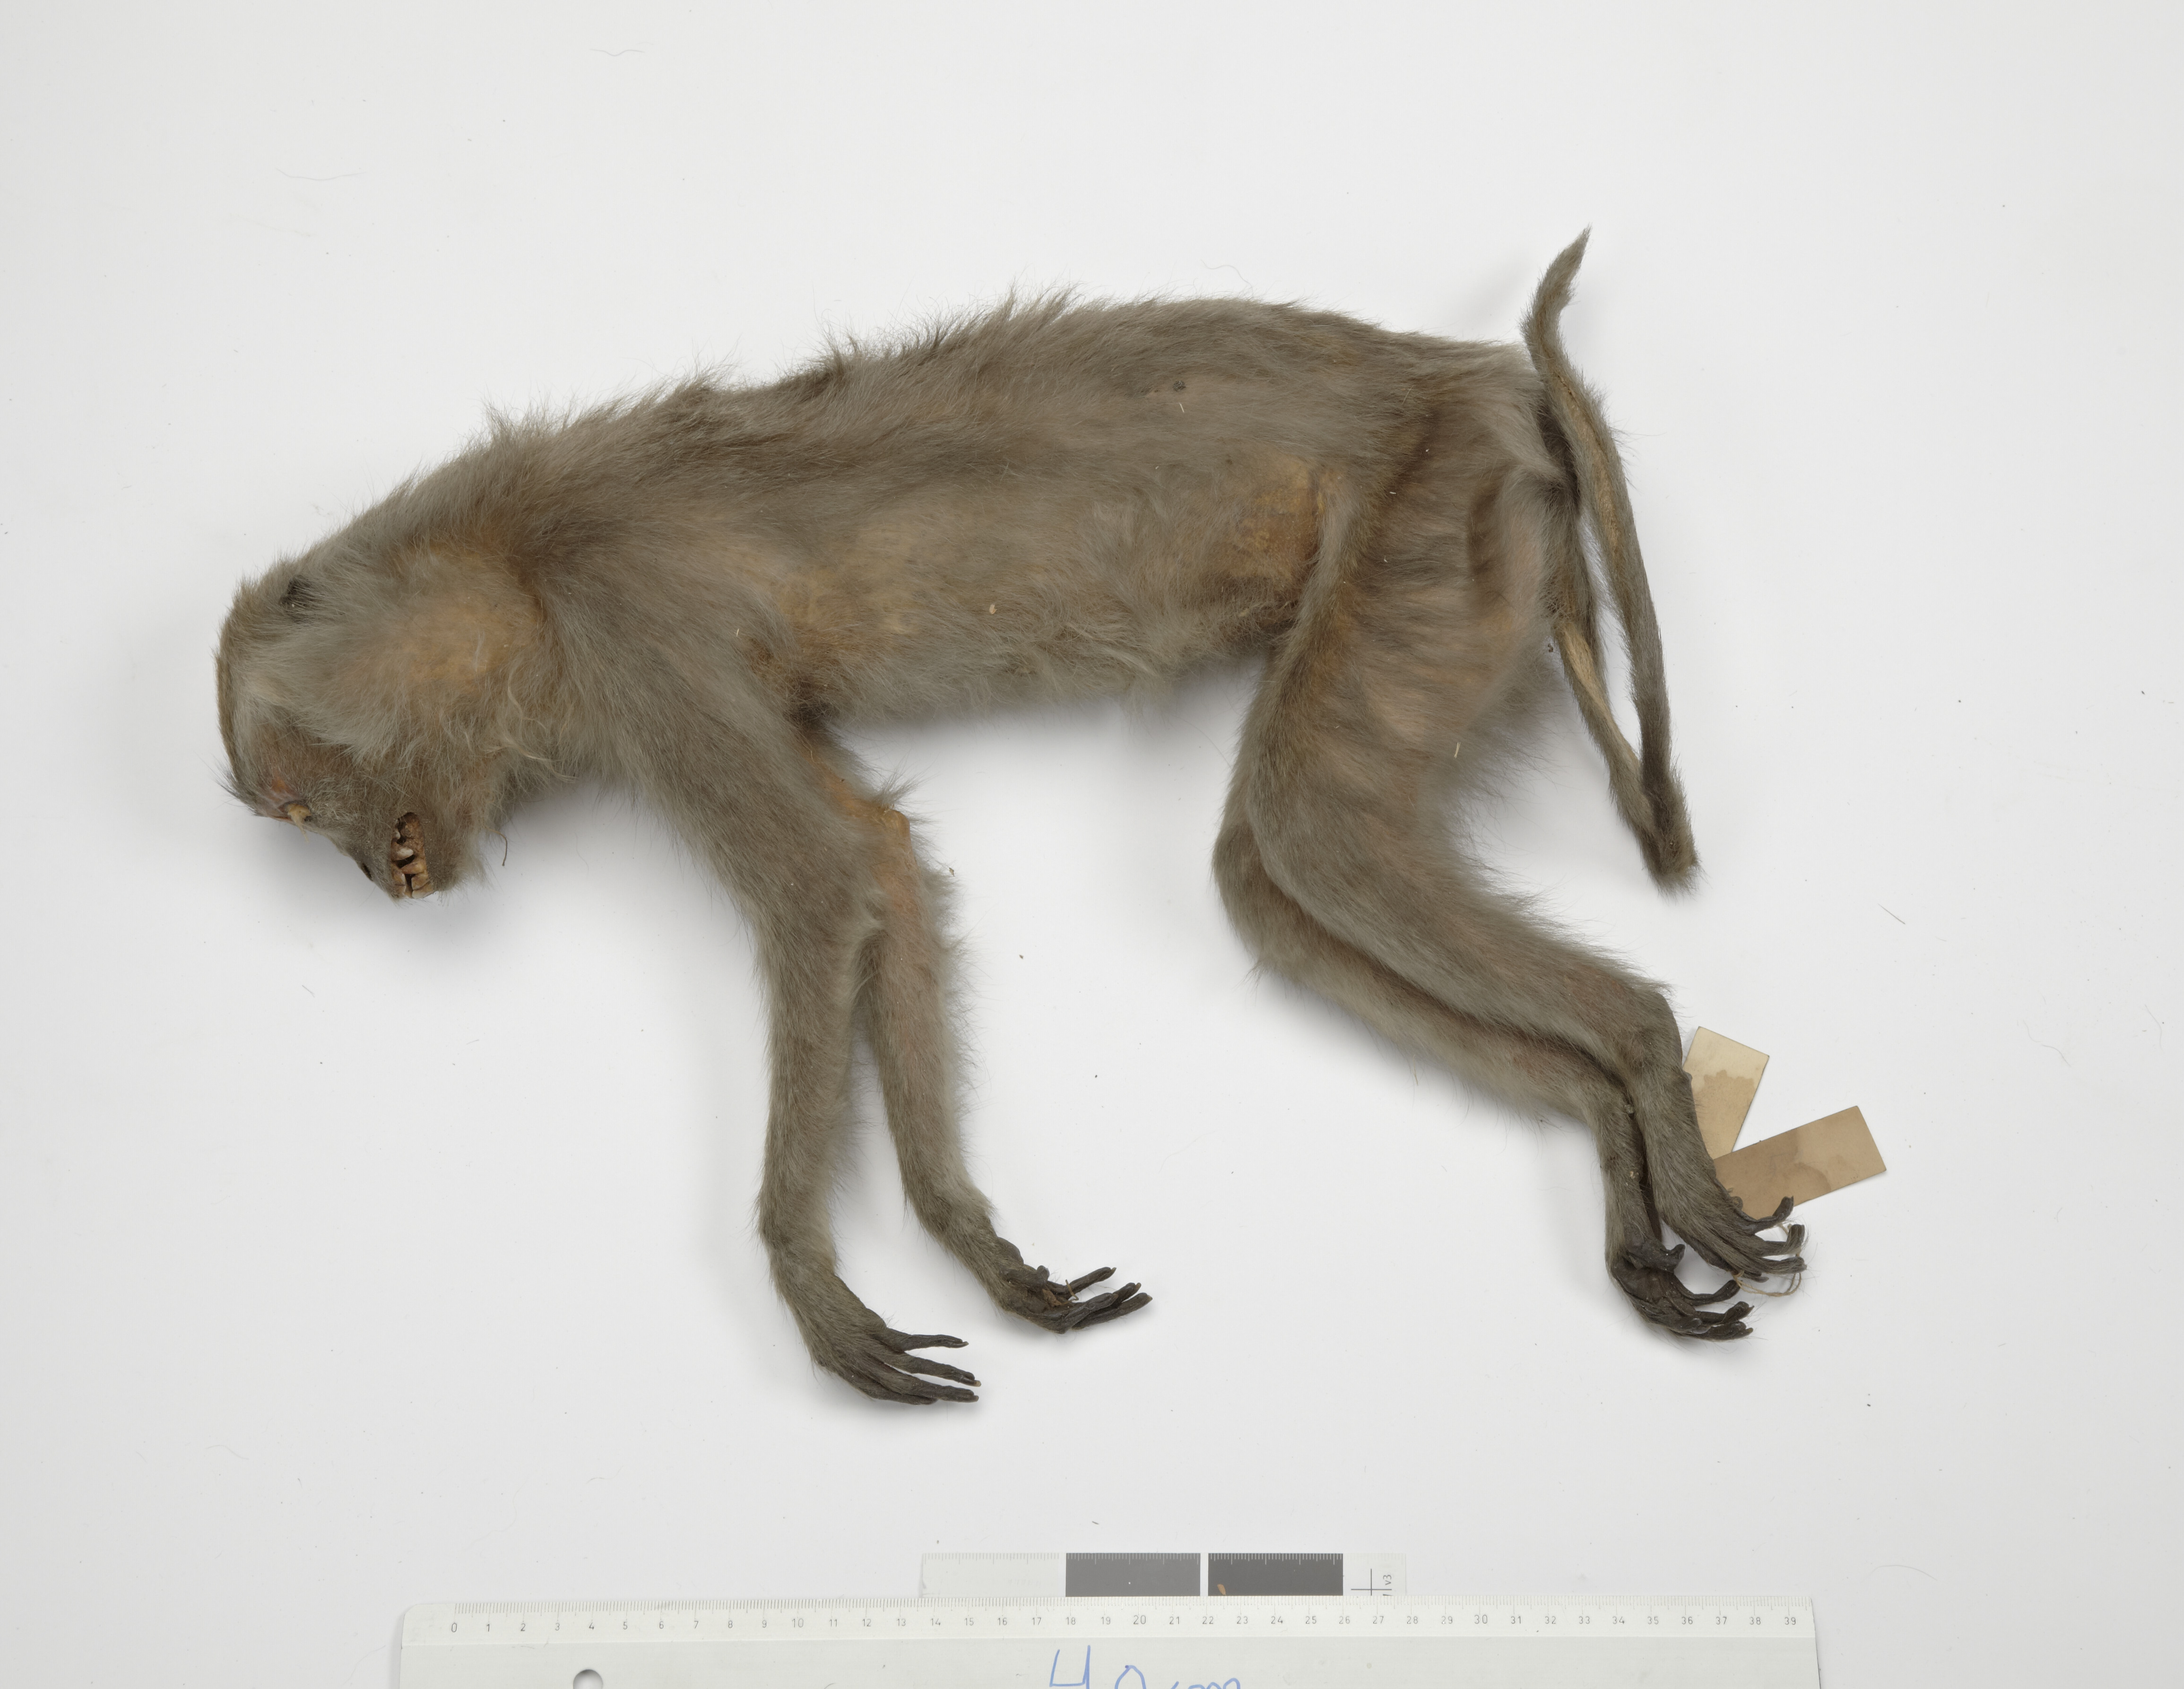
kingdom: Animalia
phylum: Chordata
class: Mammalia
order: Primates
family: Cercopithecidae
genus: Macaca
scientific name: Macaca fascicularis
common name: Crab-eating macaque
